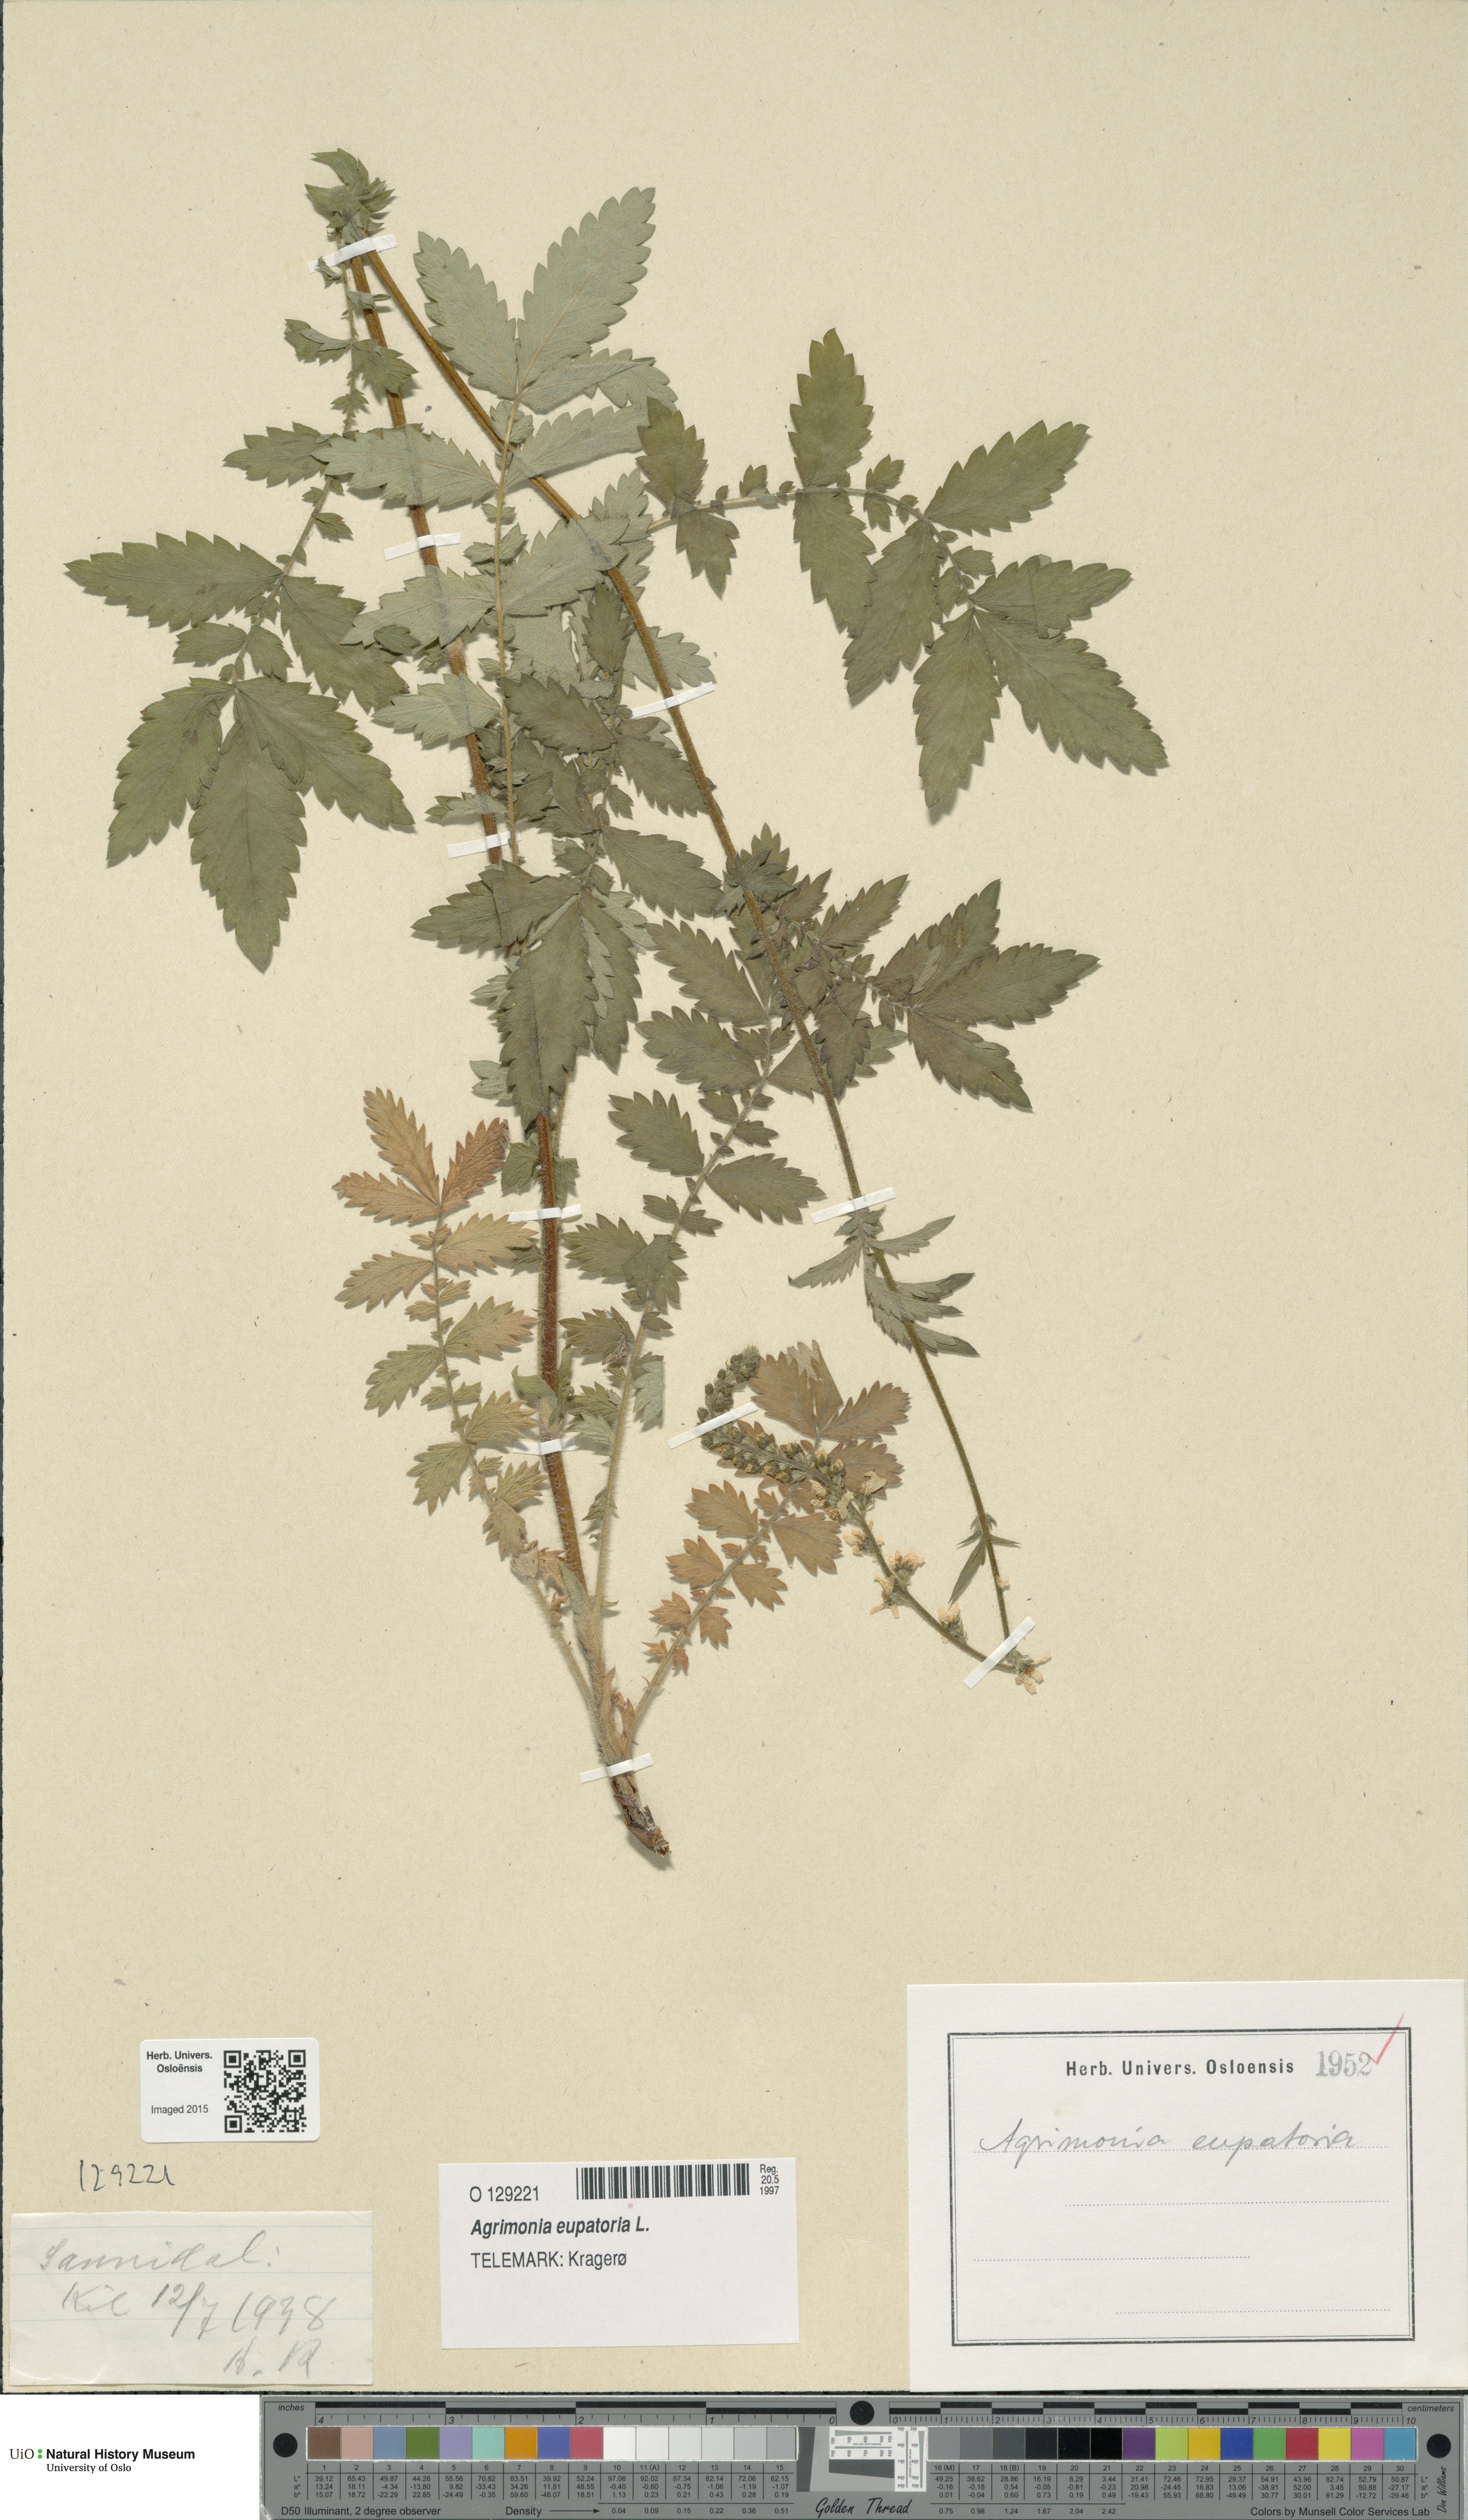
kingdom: Plantae
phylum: Tracheophyta
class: Magnoliopsida
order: Rosales
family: Rosaceae
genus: Agrimonia
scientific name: Agrimonia eupatoria
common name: Agrimony
